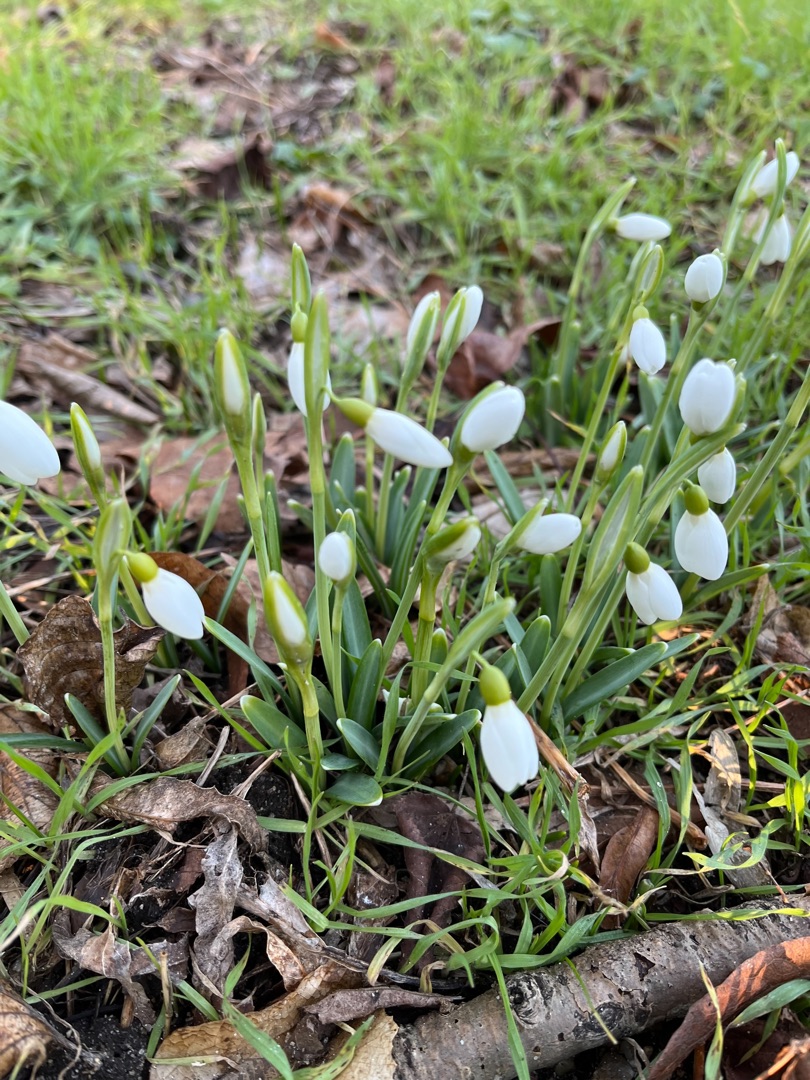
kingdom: Plantae
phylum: Tracheophyta
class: Liliopsida
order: Asparagales
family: Amaryllidaceae
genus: Galanthus
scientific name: Galanthus nivalis
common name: Vintergæk
